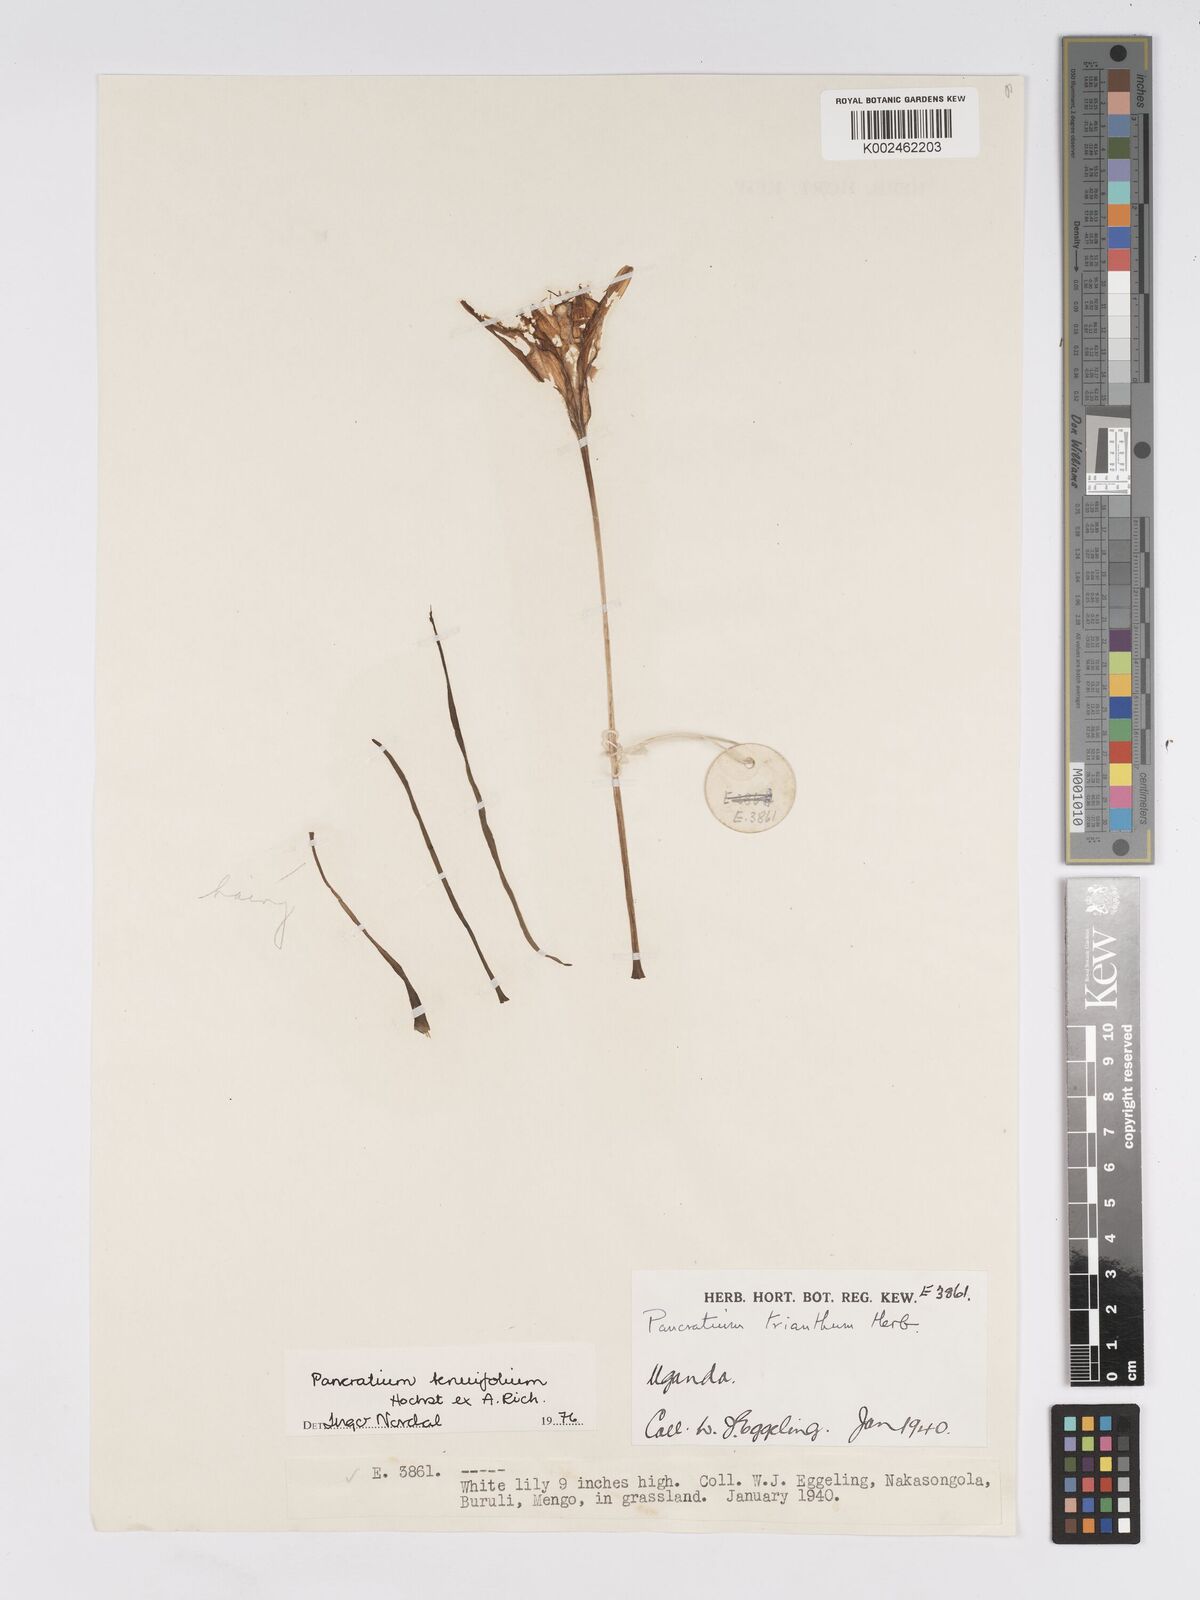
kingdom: Plantae
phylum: Tracheophyta
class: Liliopsida
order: Asparagales
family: Amaryllidaceae
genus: Pancratium
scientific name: Pancratium tenuifolium
